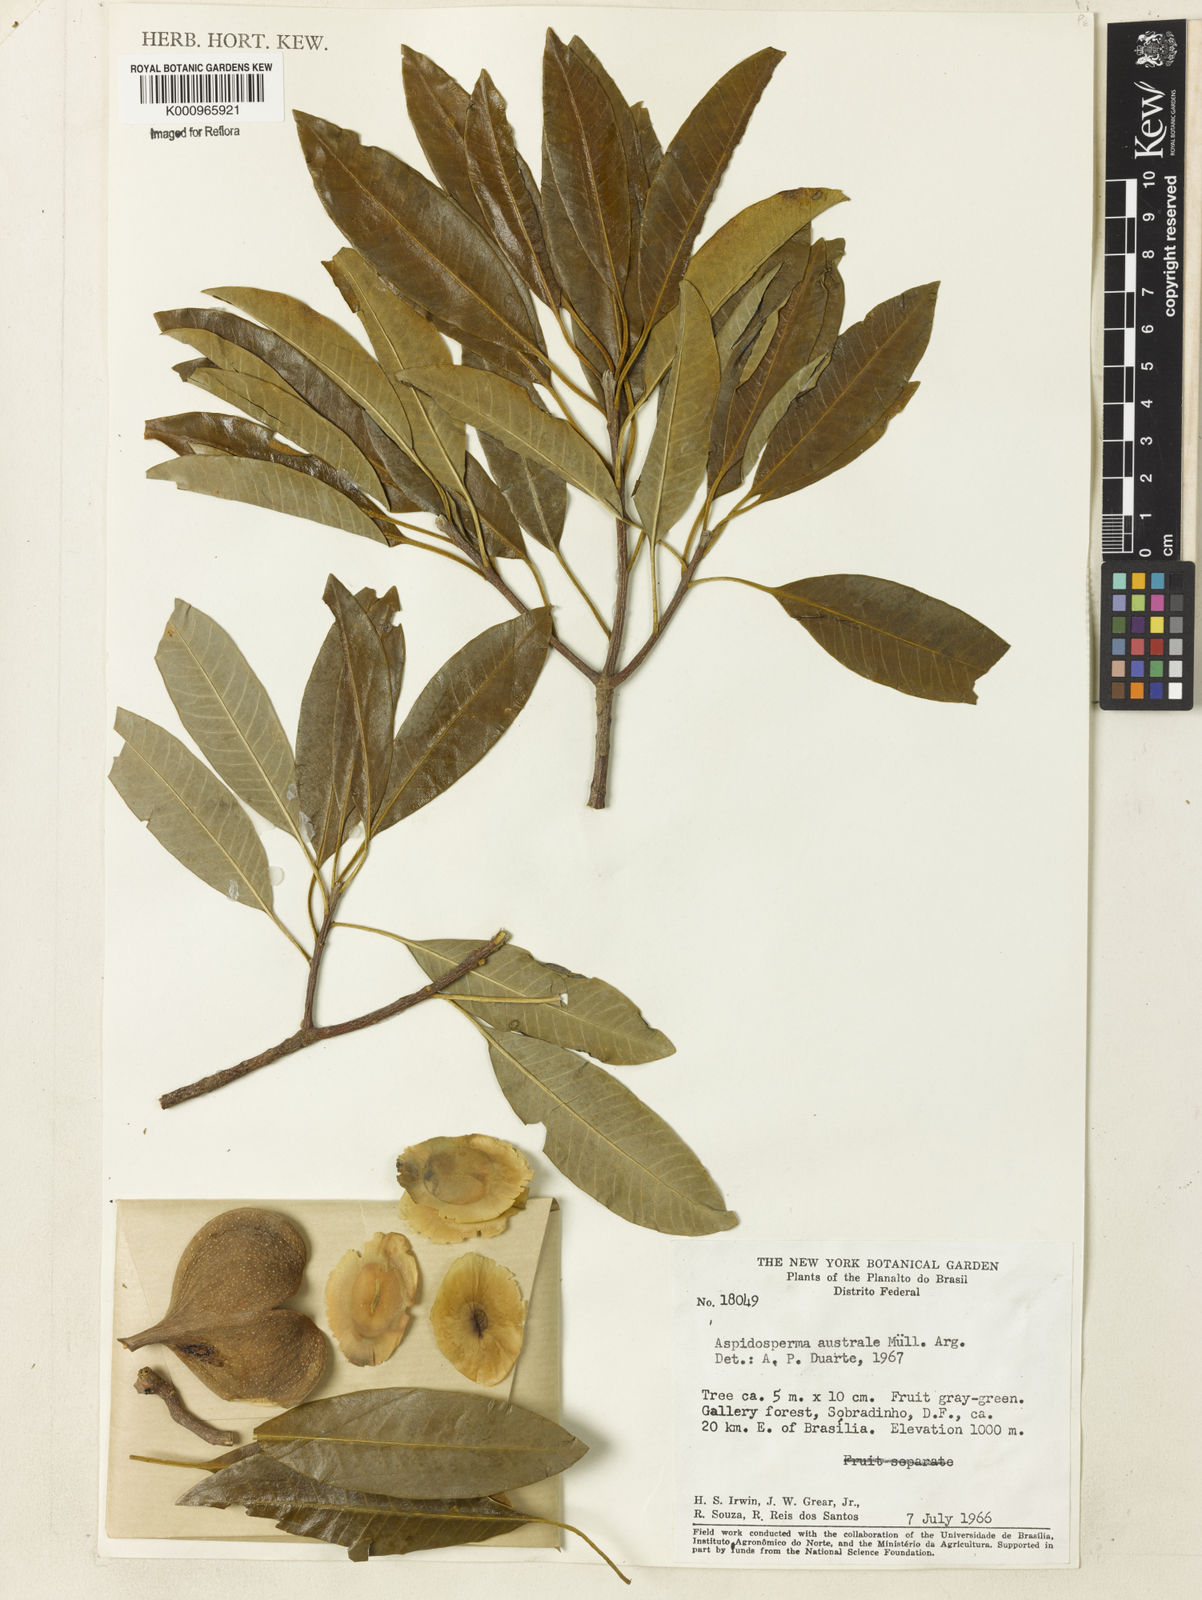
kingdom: Plantae
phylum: Tracheophyta
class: Magnoliopsida
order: Gentianales
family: Apocynaceae
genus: Aspidosperma
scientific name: Aspidosperma
